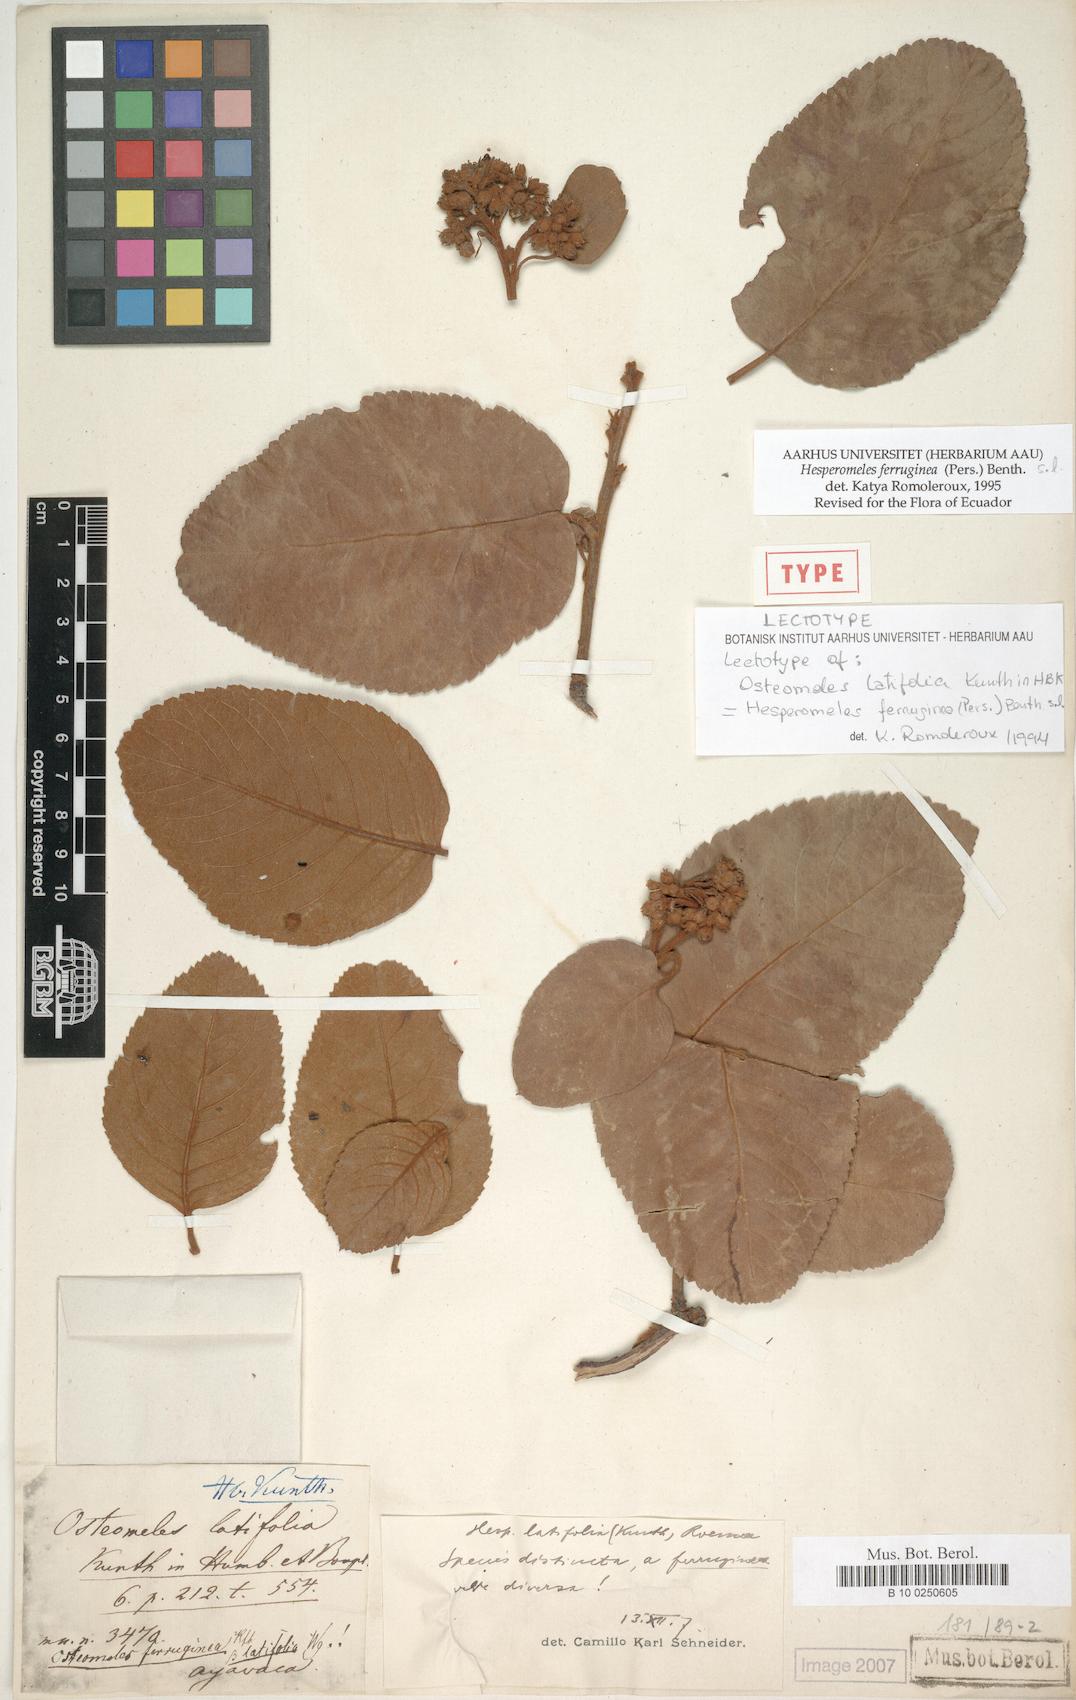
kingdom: Plantae
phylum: Tracheophyta
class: Magnoliopsida
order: Rosales
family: Rosaceae
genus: Hesperomeles
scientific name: Hesperomeles ferruginea
